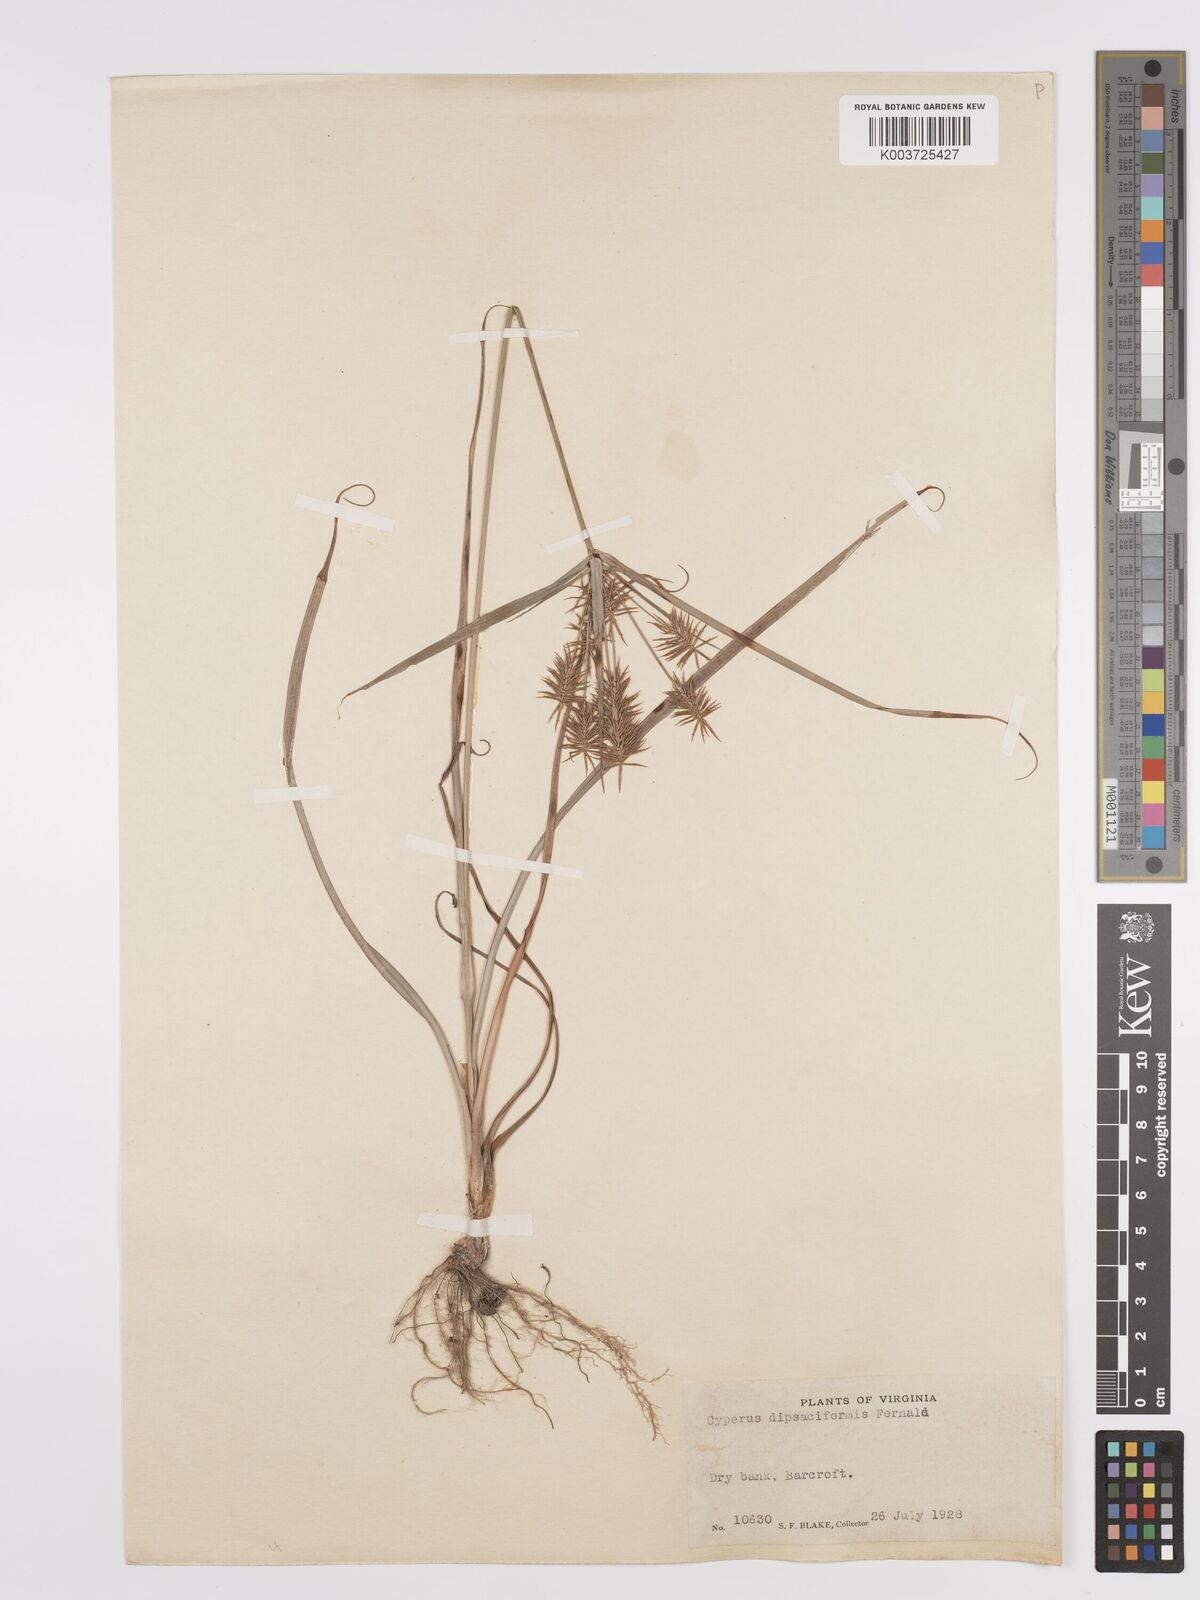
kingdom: Plantae
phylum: Tracheophyta
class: Liliopsida
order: Poales
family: Cyperaceae
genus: Cyperus
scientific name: Cyperus retrofractus
